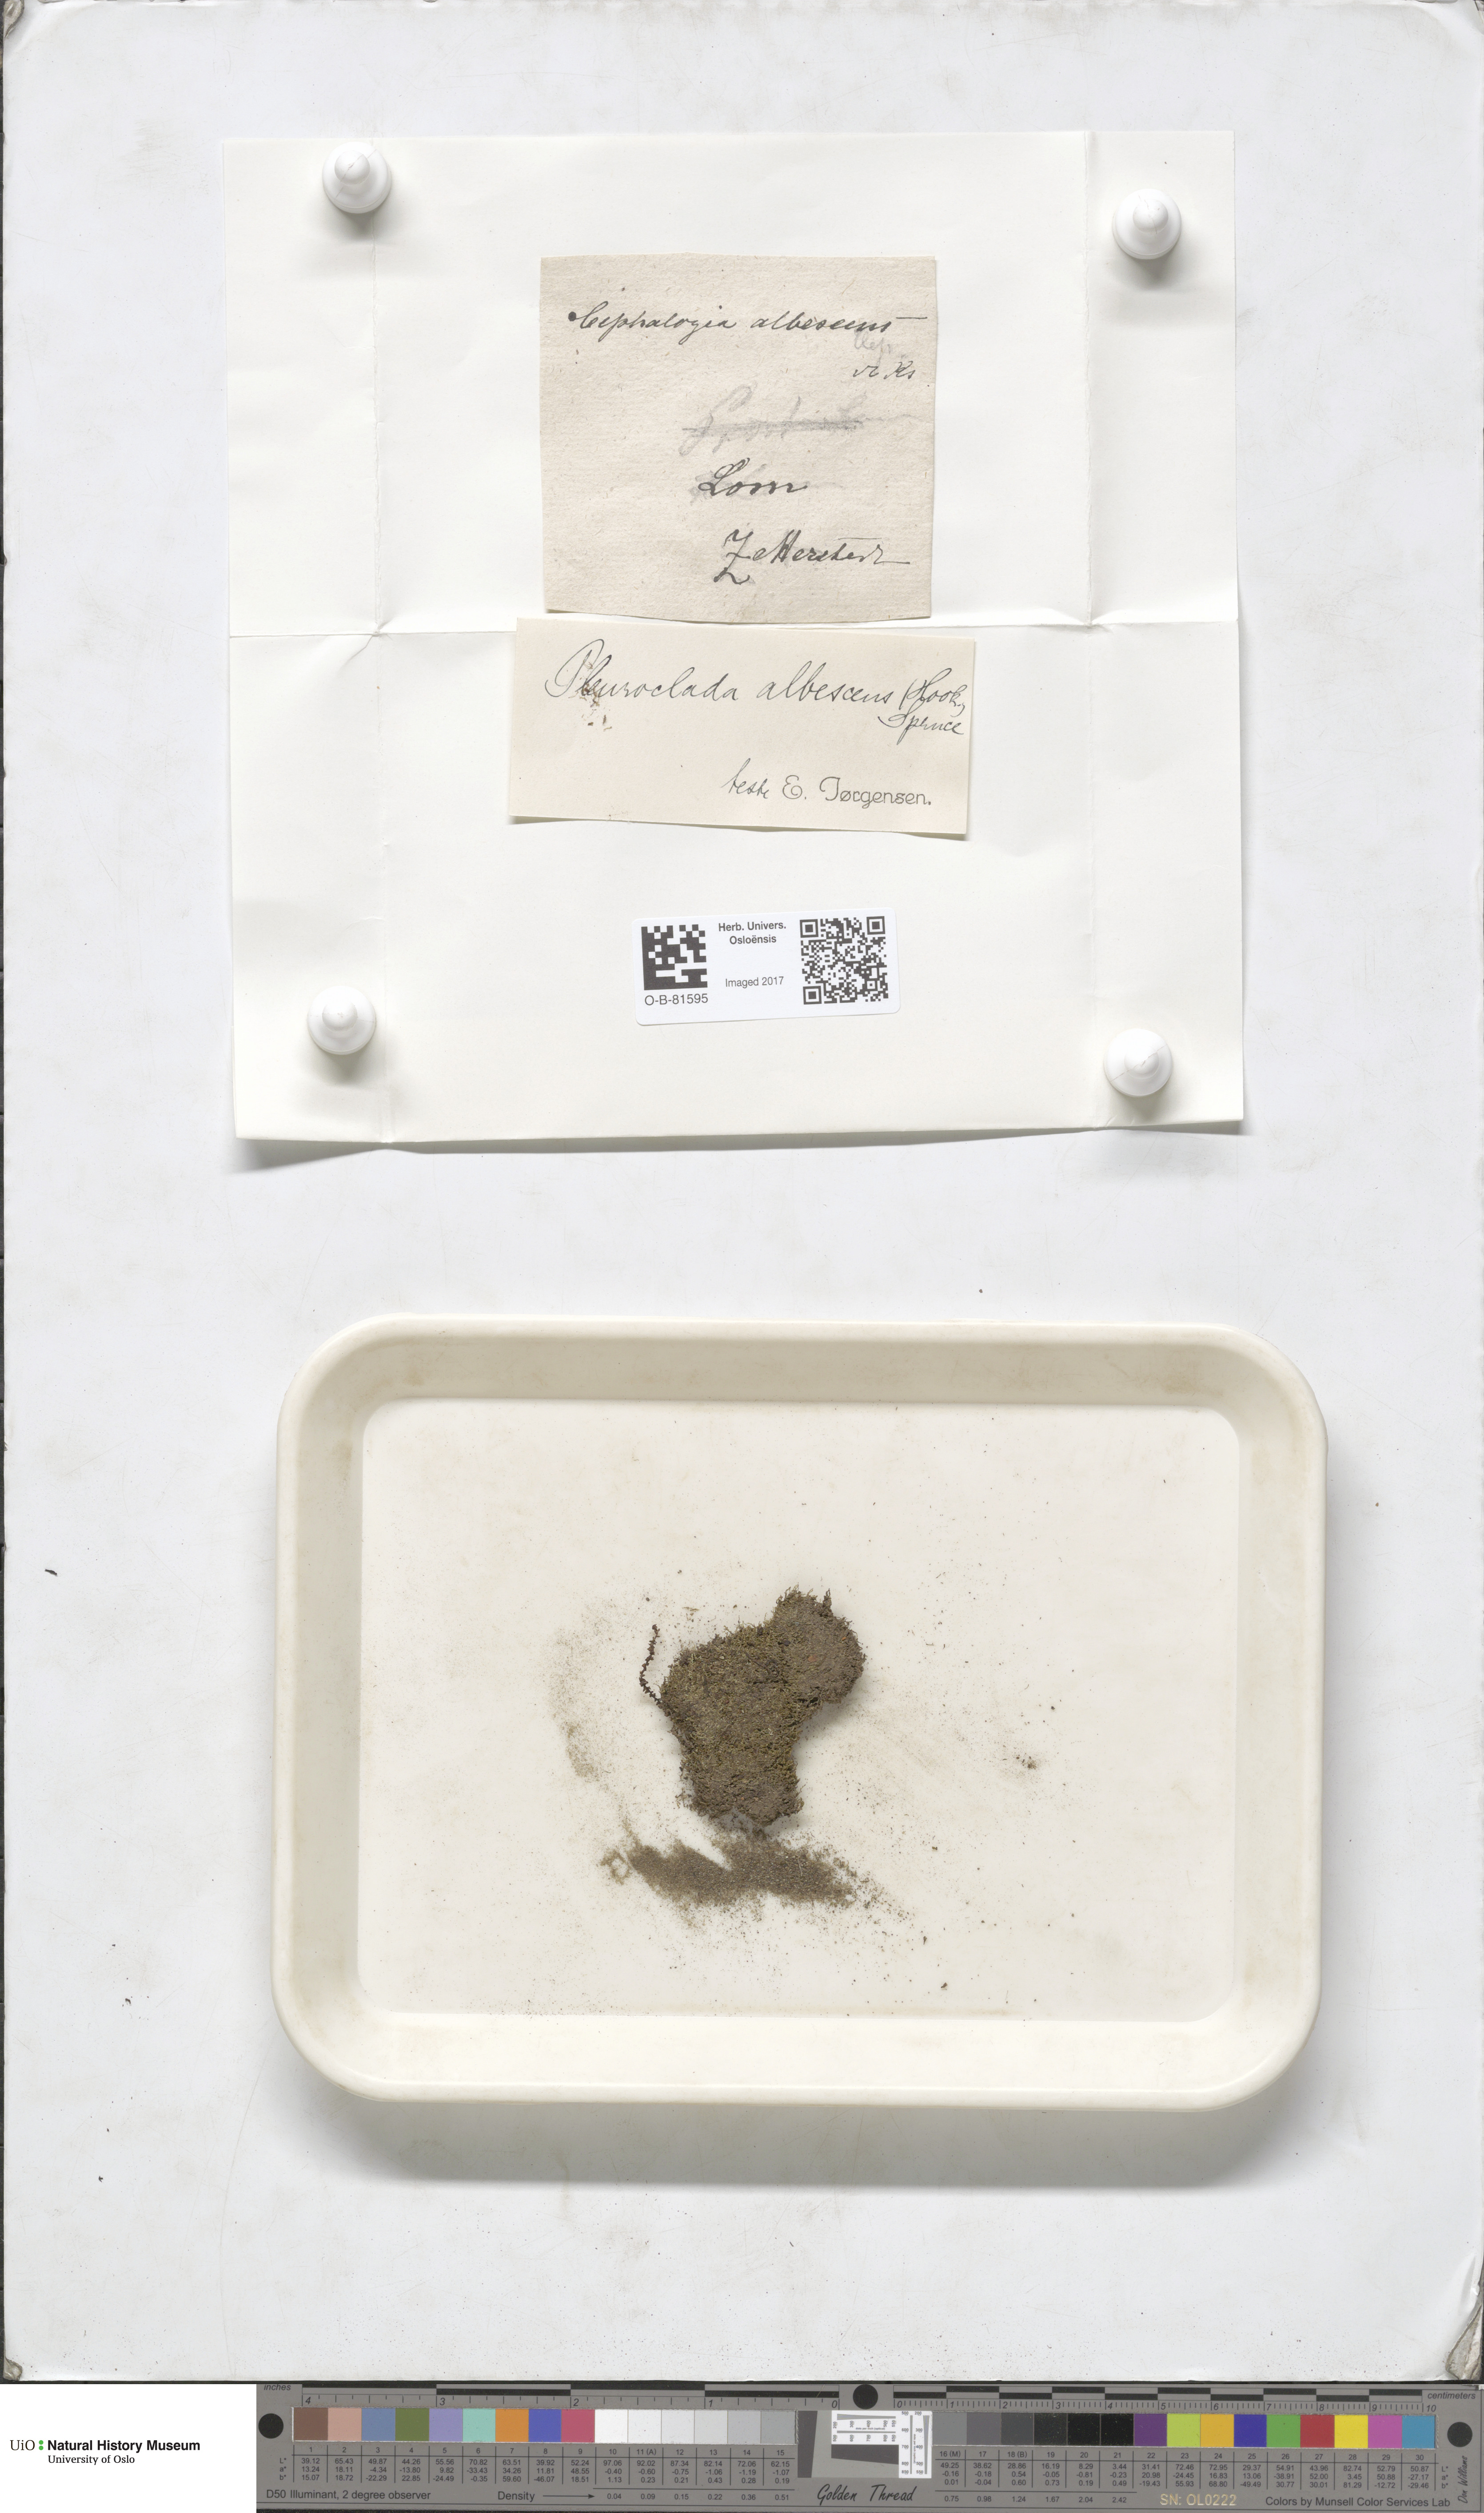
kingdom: Plantae
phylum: Marchantiophyta
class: Jungermanniopsida
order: Jungermanniales
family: Cephaloziaceae
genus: Fuscocephaloziopsis
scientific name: Fuscocephaloziopsis albescens
